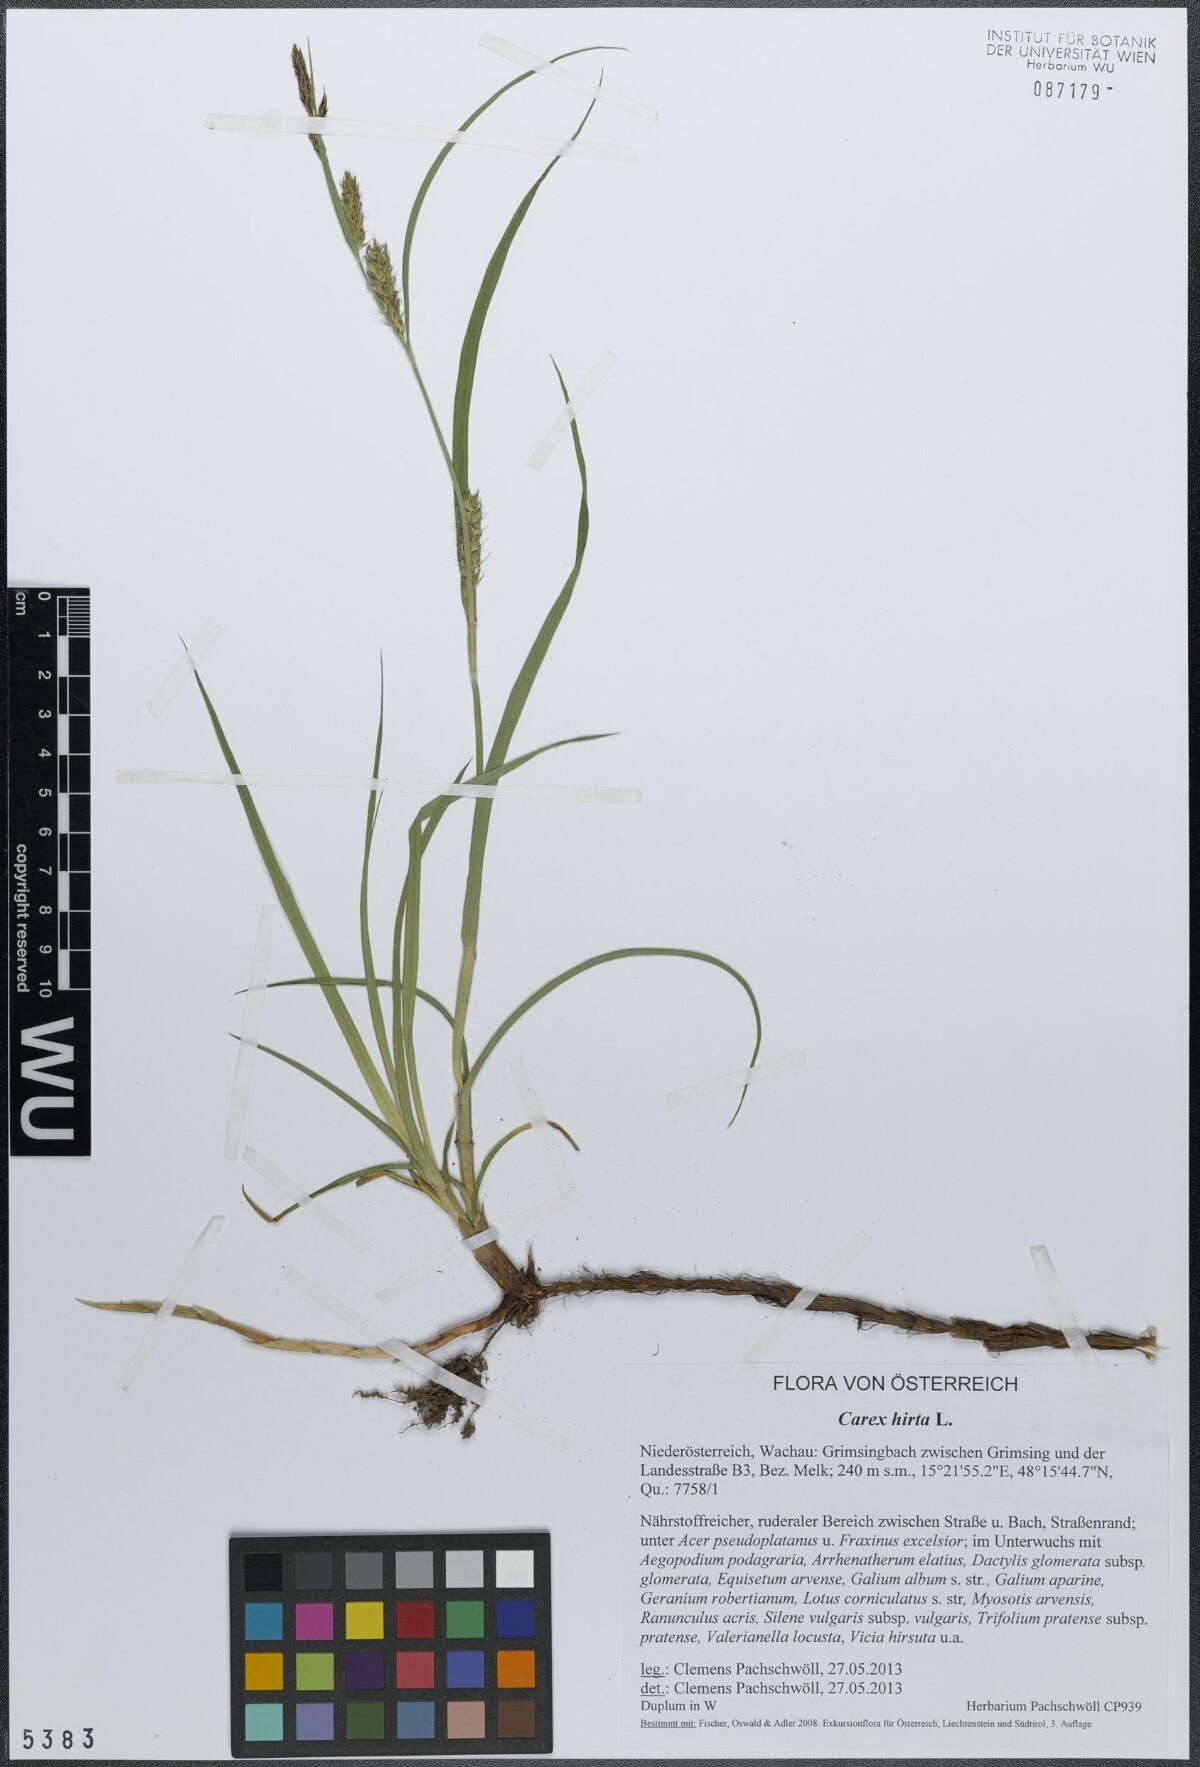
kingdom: Plantae
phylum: Tracheophyta
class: Liliopsida
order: Poales
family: Cyperaceae
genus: Carex
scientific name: Carex hirta
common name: Hairy sedge
